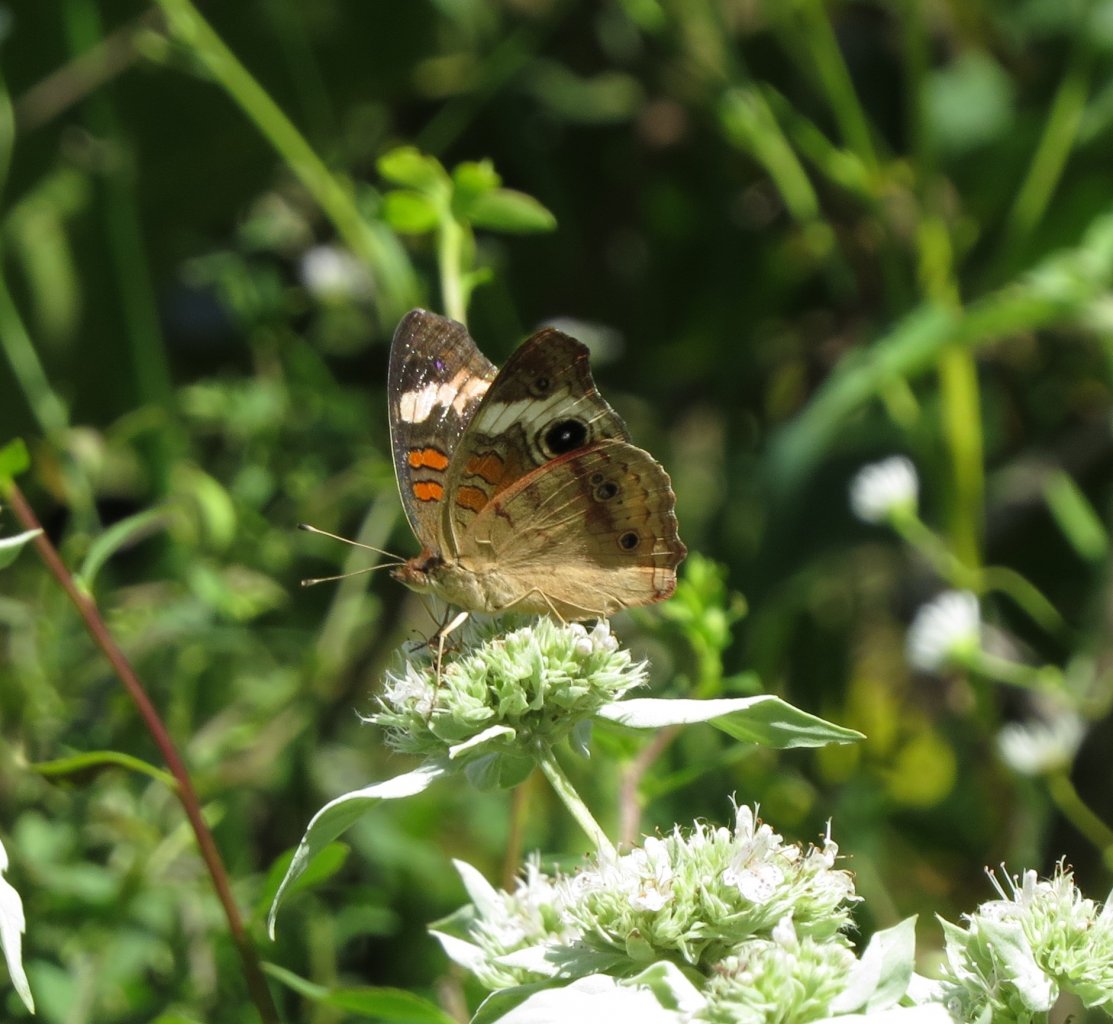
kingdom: Animalia
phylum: Arthropoda
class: Insecta
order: Lepidoptera
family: Nymphalidae
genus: Junonia
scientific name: Junonia coenia
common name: Common Buckeye
